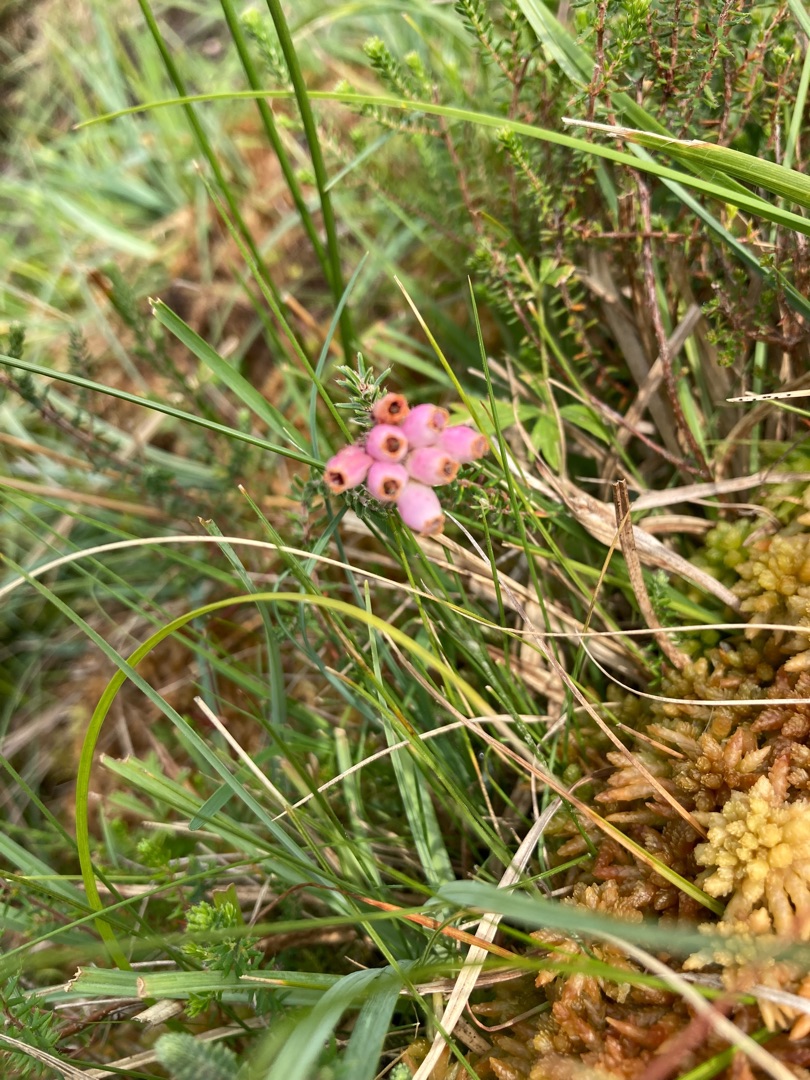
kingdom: Plantae
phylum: Tracheophyta
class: Magnoliopsida
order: Ericales
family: Ericaceae
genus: Erica
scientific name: Erica tetralix
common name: Klokkelyng
